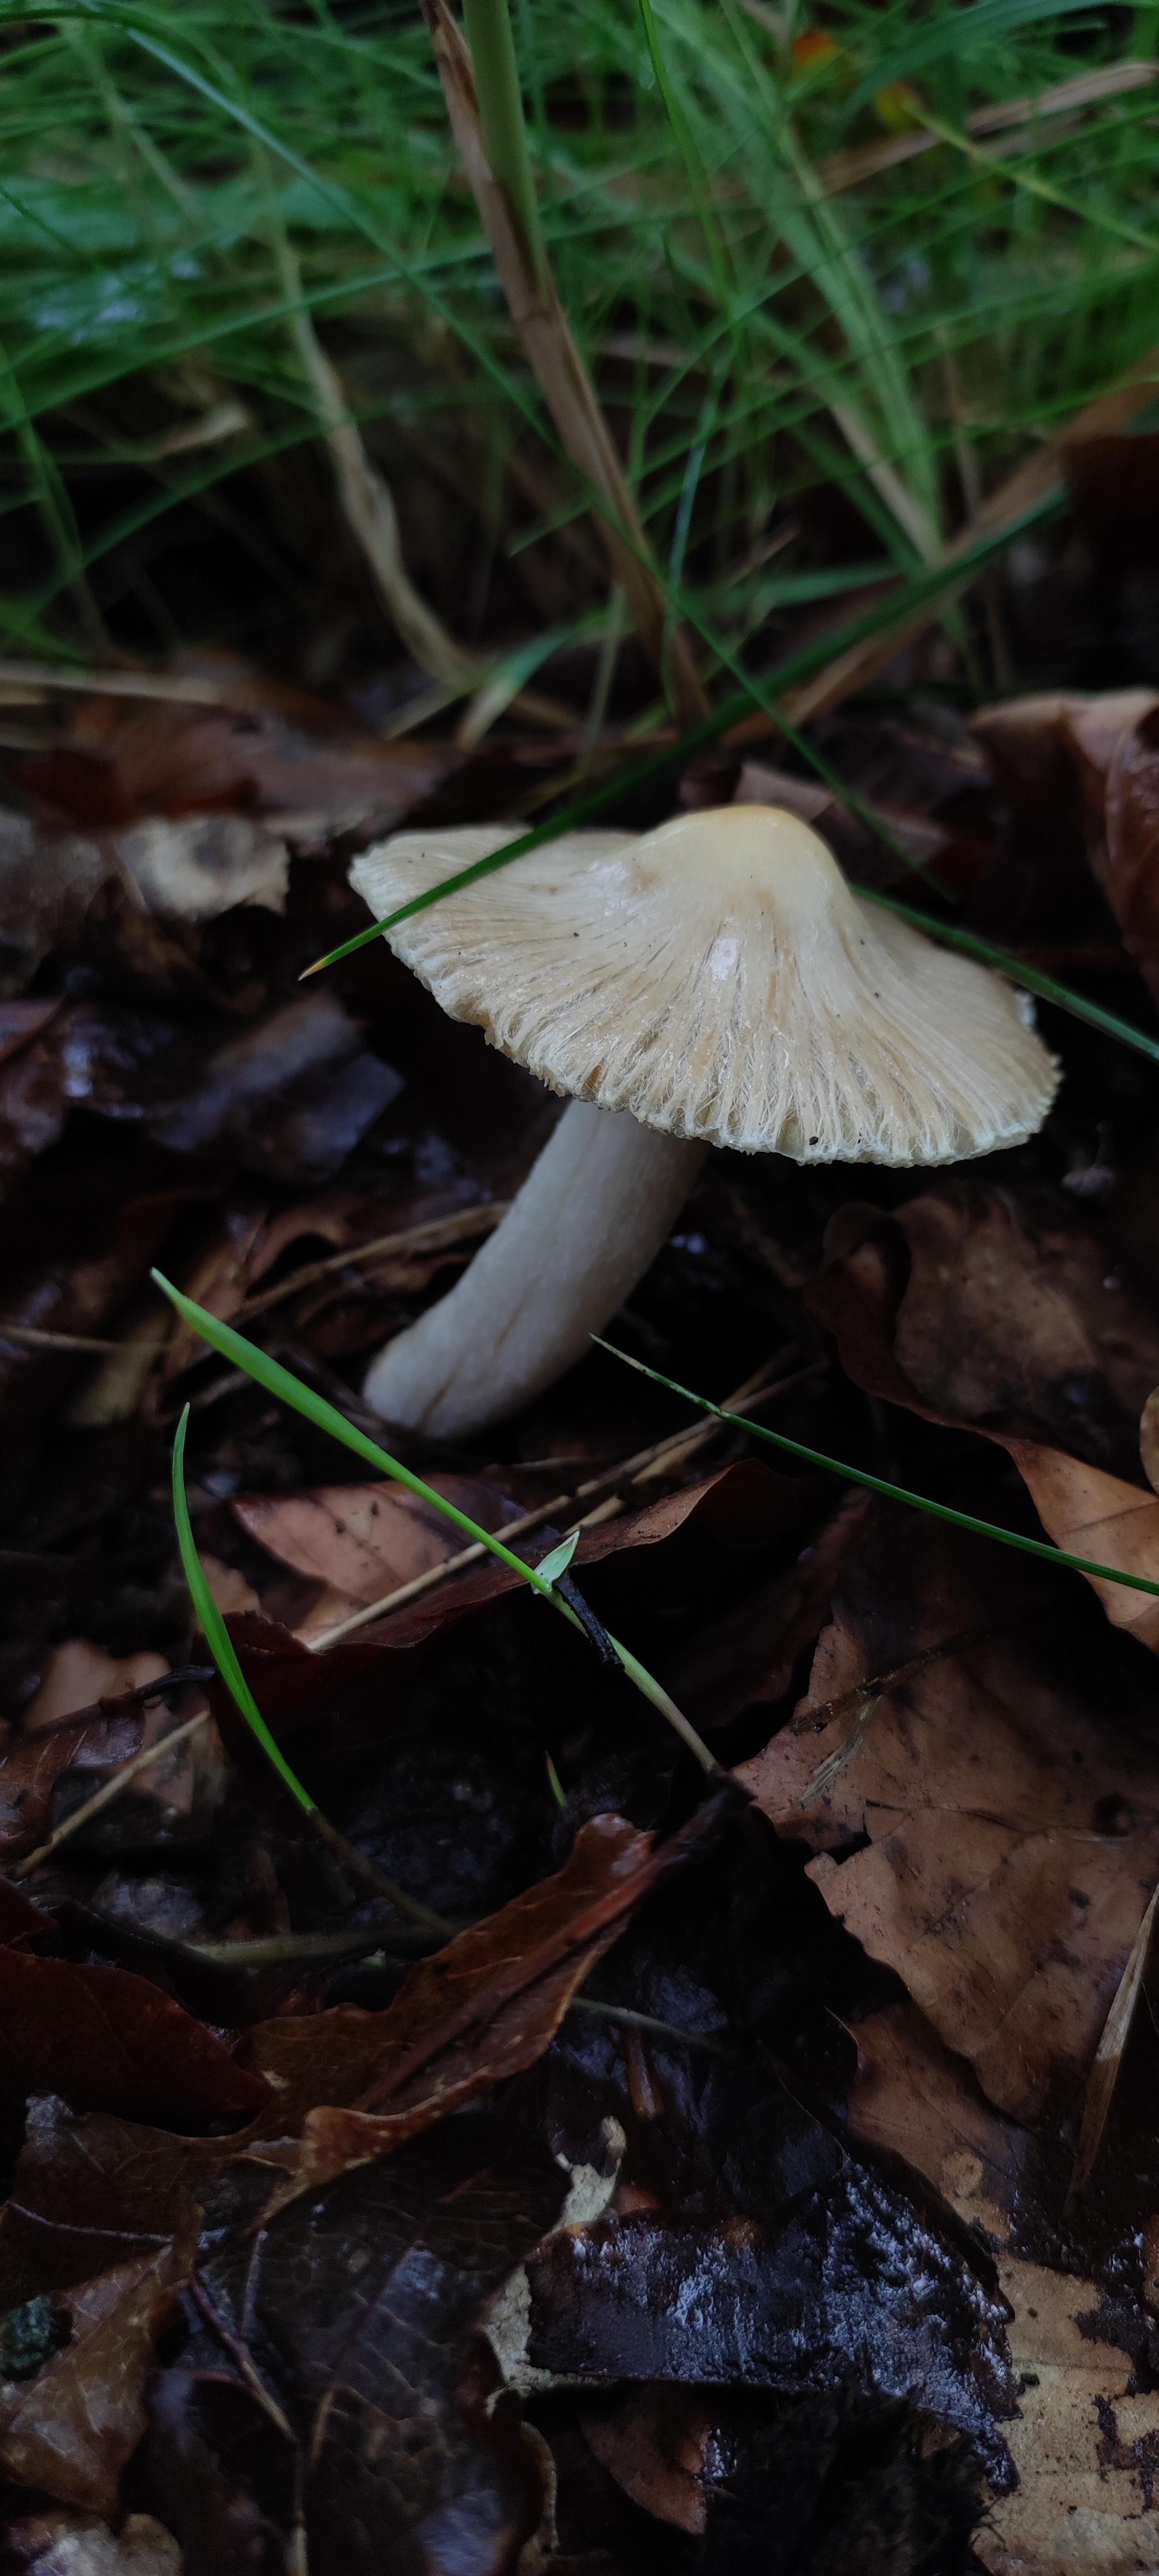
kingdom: Fungi
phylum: Basidiomycota
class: Agaricomycetes
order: Agaricales
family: Inocybaceae
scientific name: Inocybaceae
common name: trævlhatfamilien
